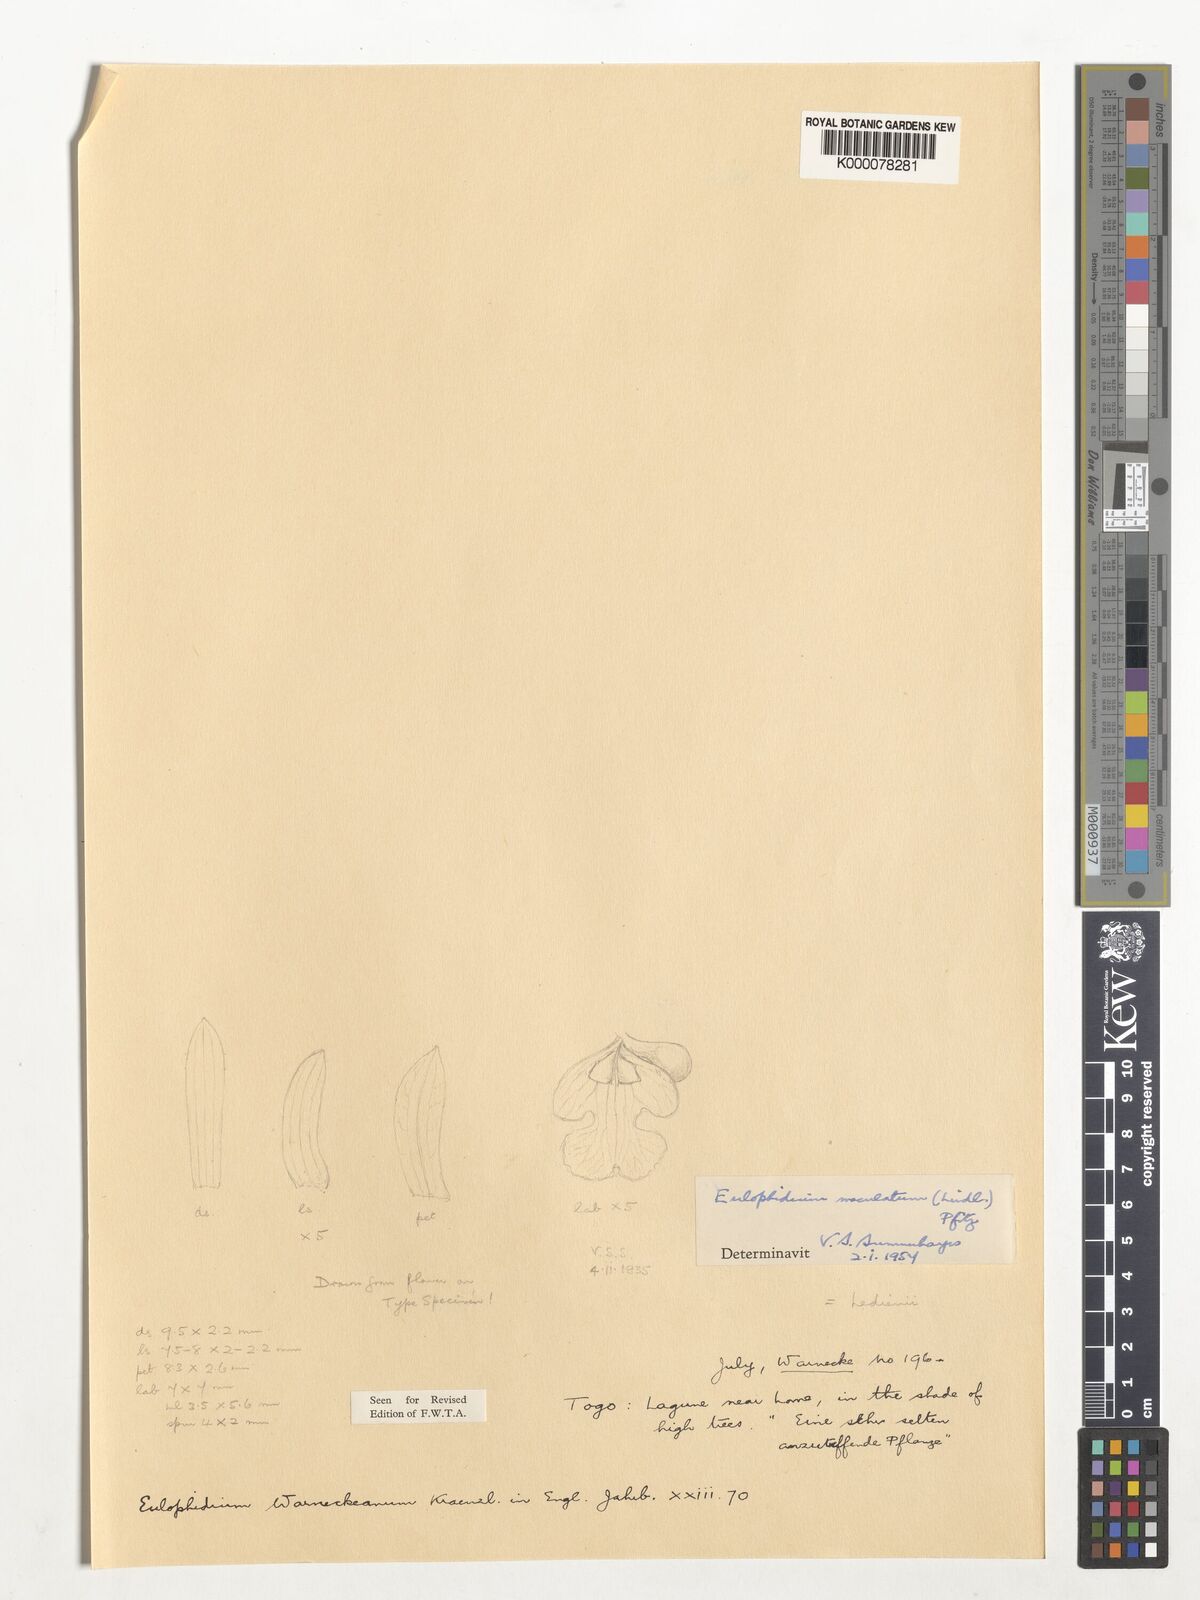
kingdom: Plantae
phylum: Tracheophyta
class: Liliopsida
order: Asparagales
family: Orchidaceae
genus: Eulophia
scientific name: Eulophia maculata
